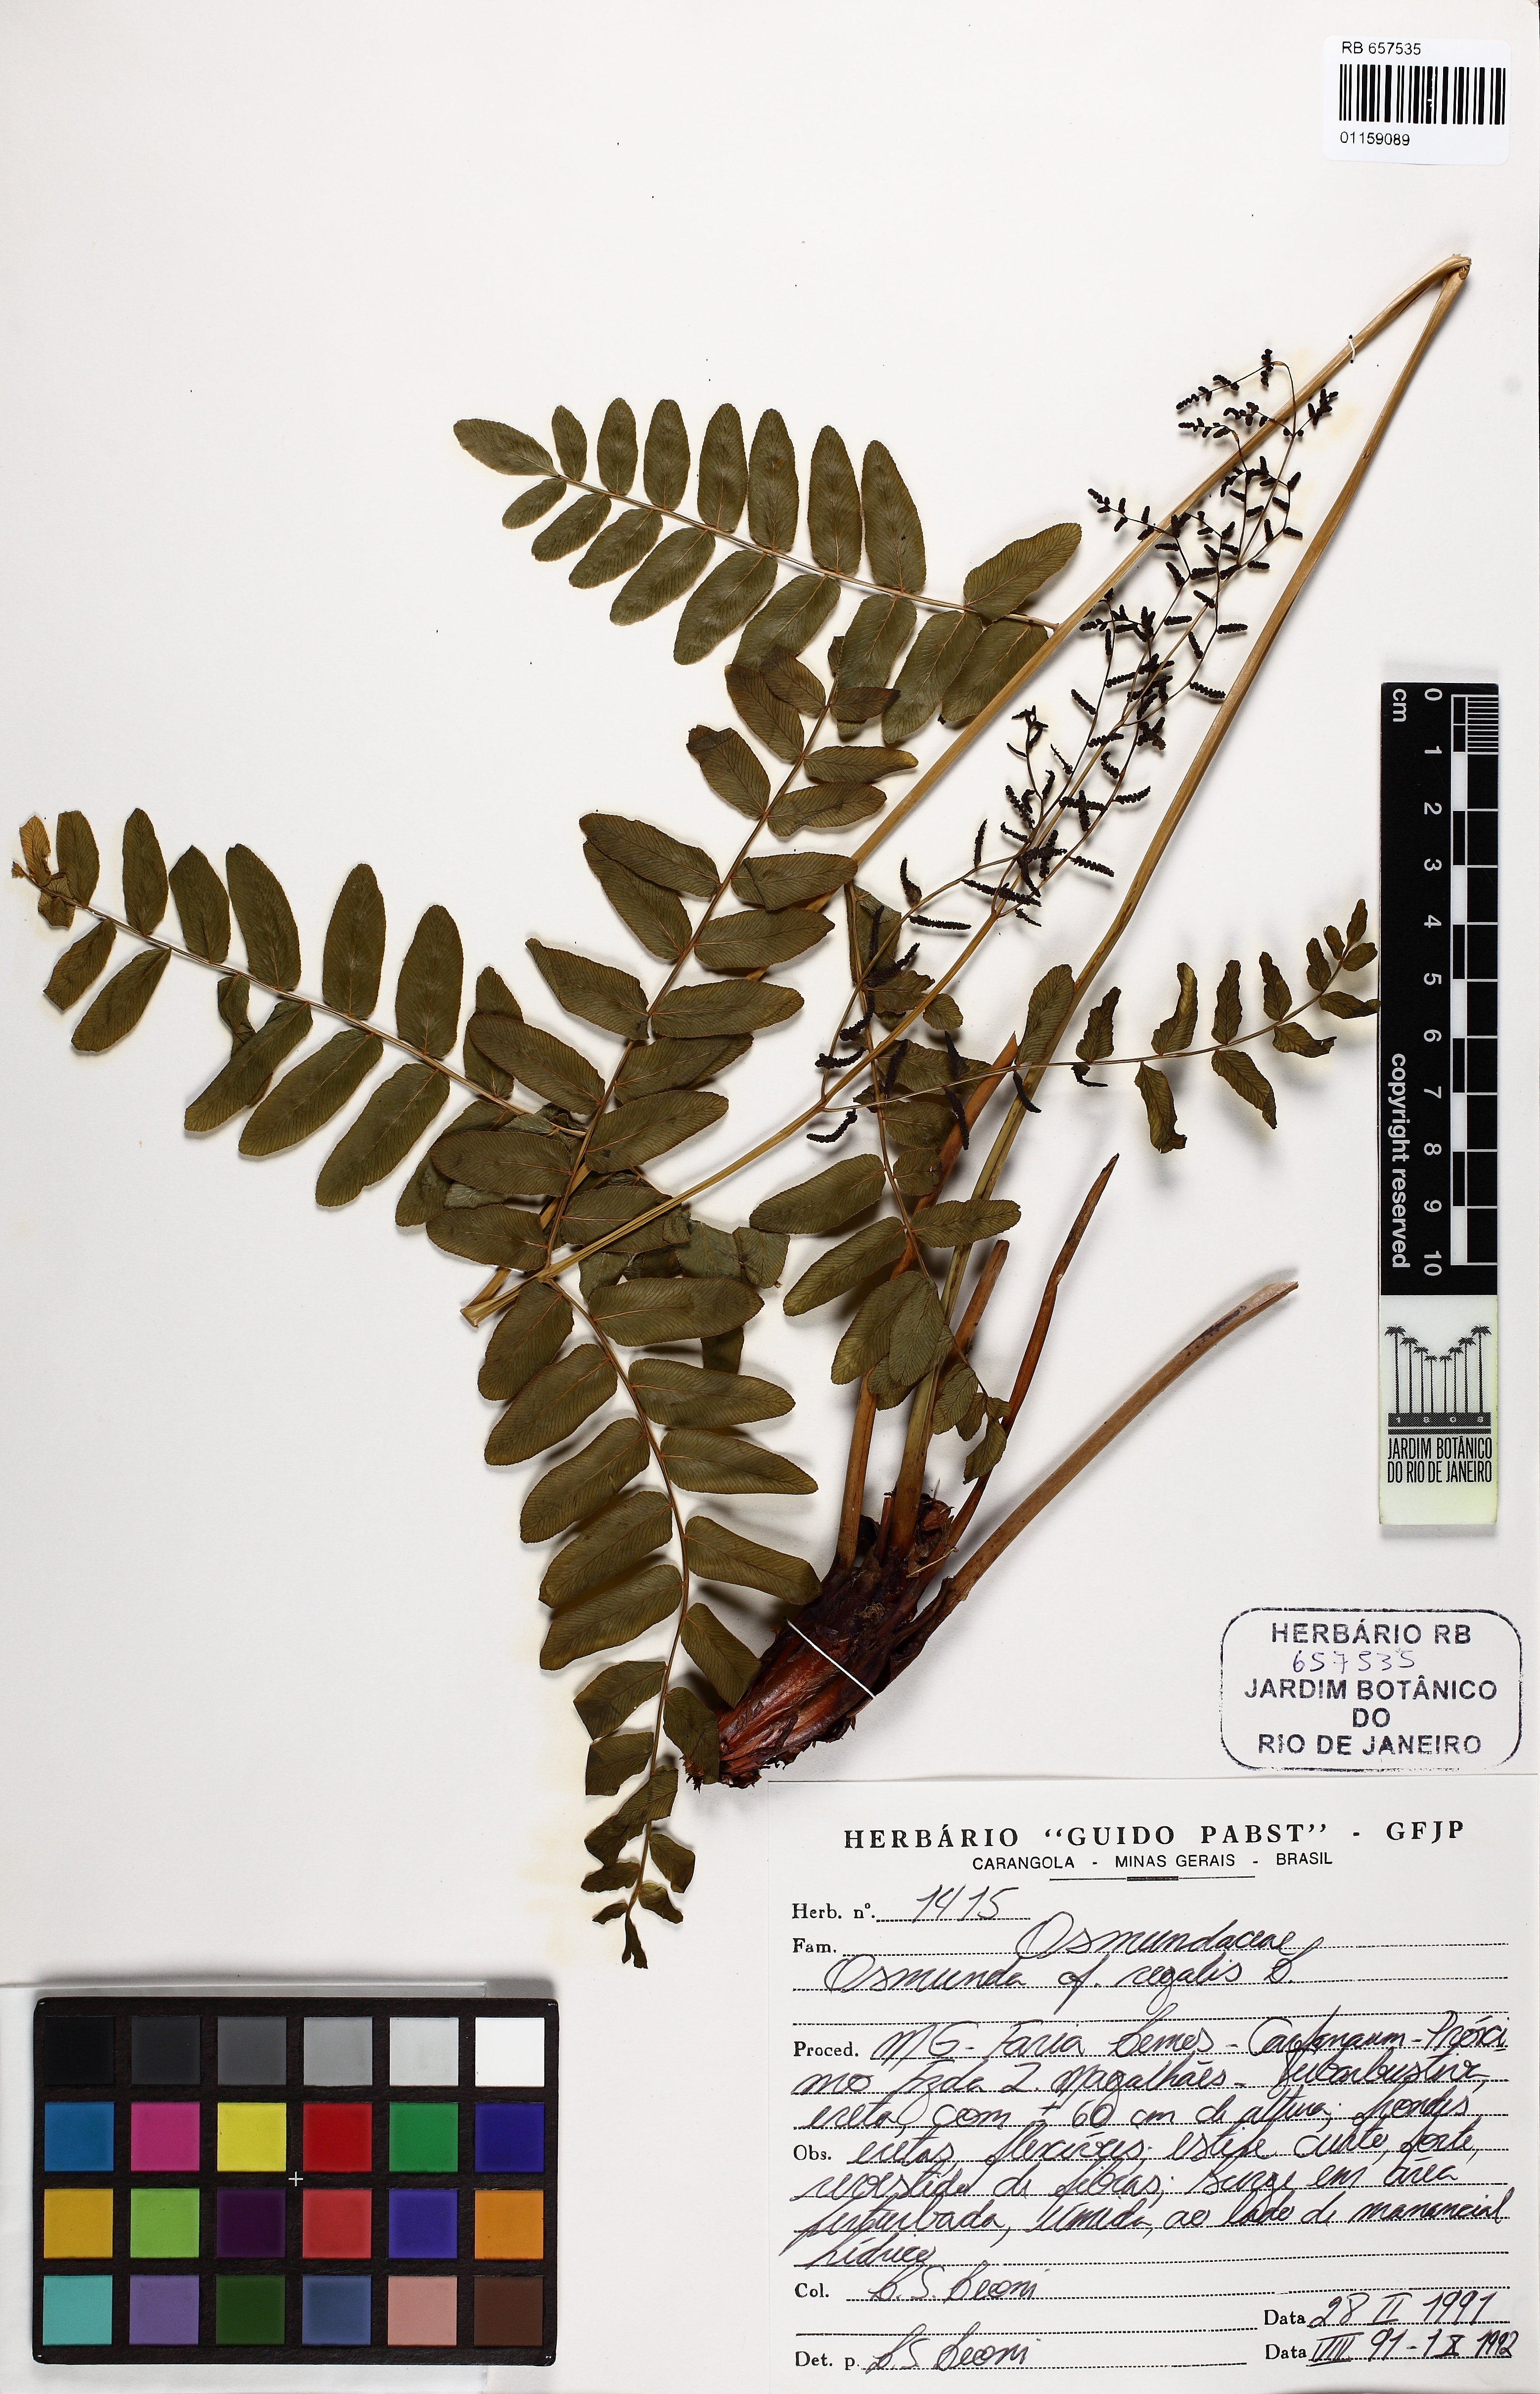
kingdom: Plantae
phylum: Tracheophyta
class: Polypodiopsida
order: Osmundales
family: Osmundaceae
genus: Osmunda
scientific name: Osmunda regalis
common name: Royal fern
